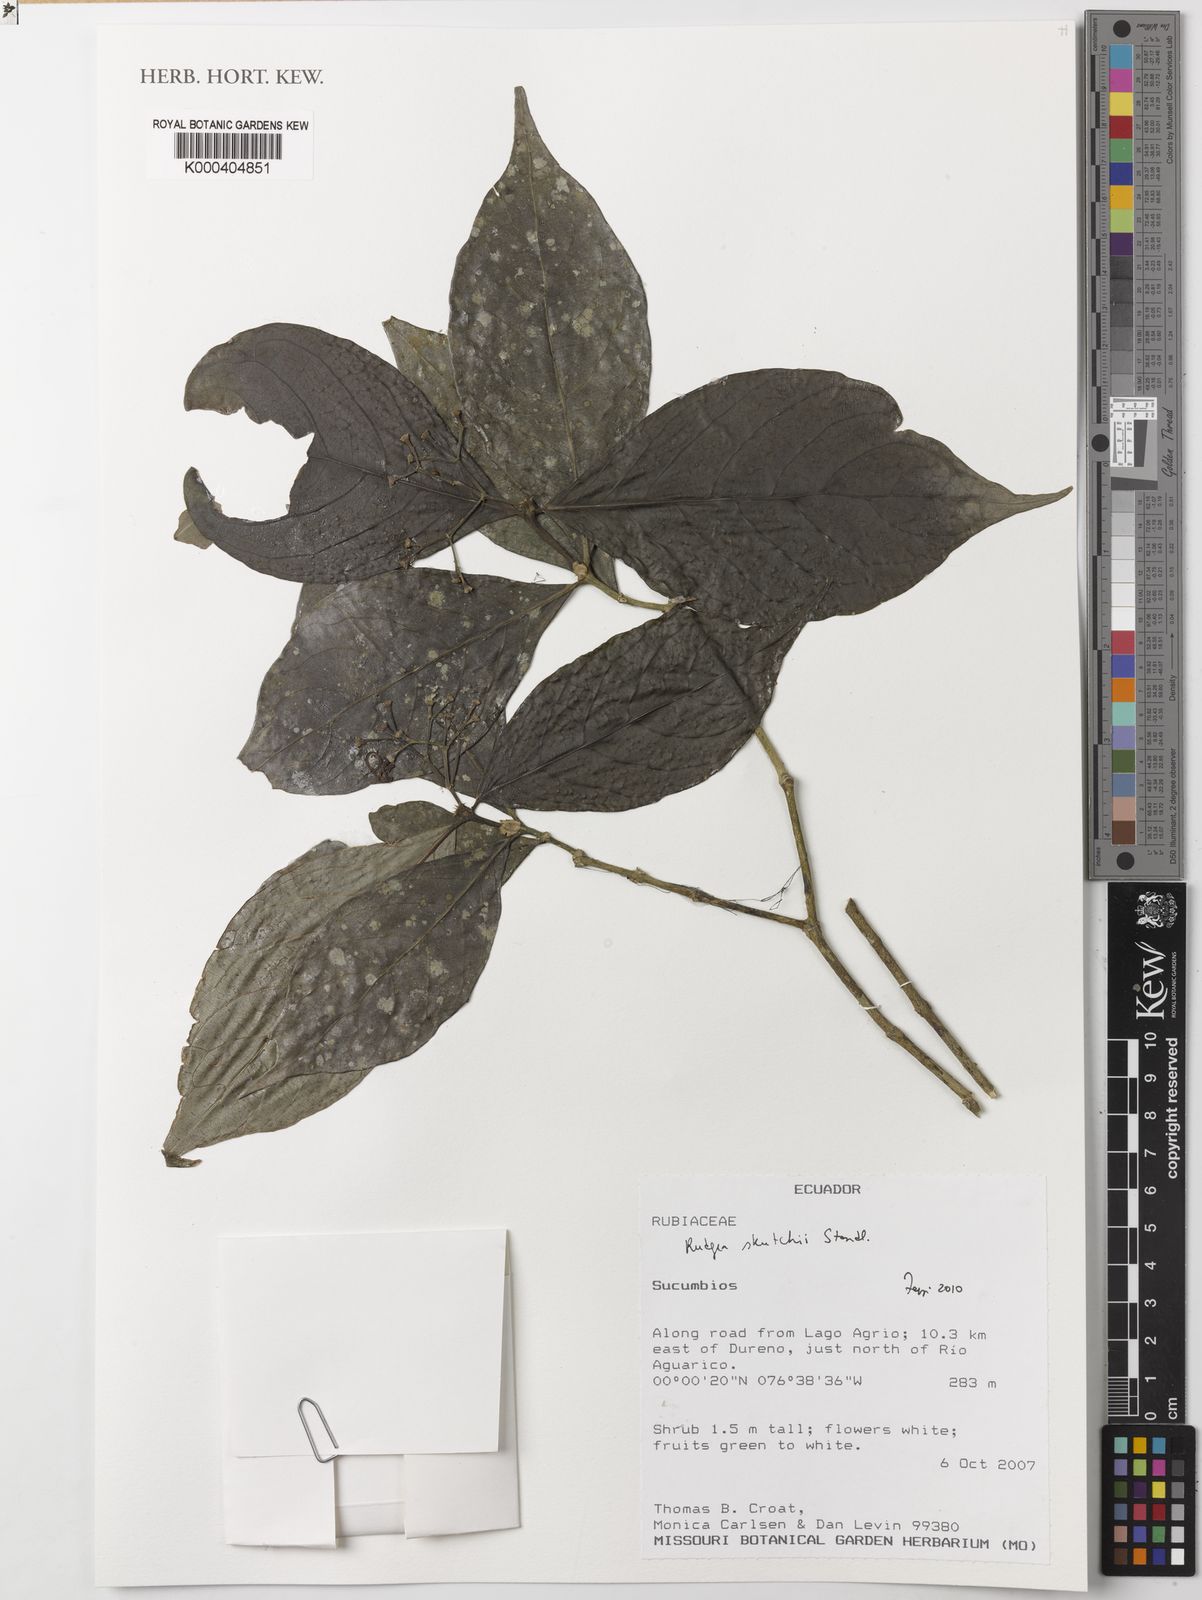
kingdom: Plantae
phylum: Tracheophyta
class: Magnoliopsida
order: Gentianales
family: Rubiaceae
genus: Rudgea
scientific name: Rudgea skutchii
